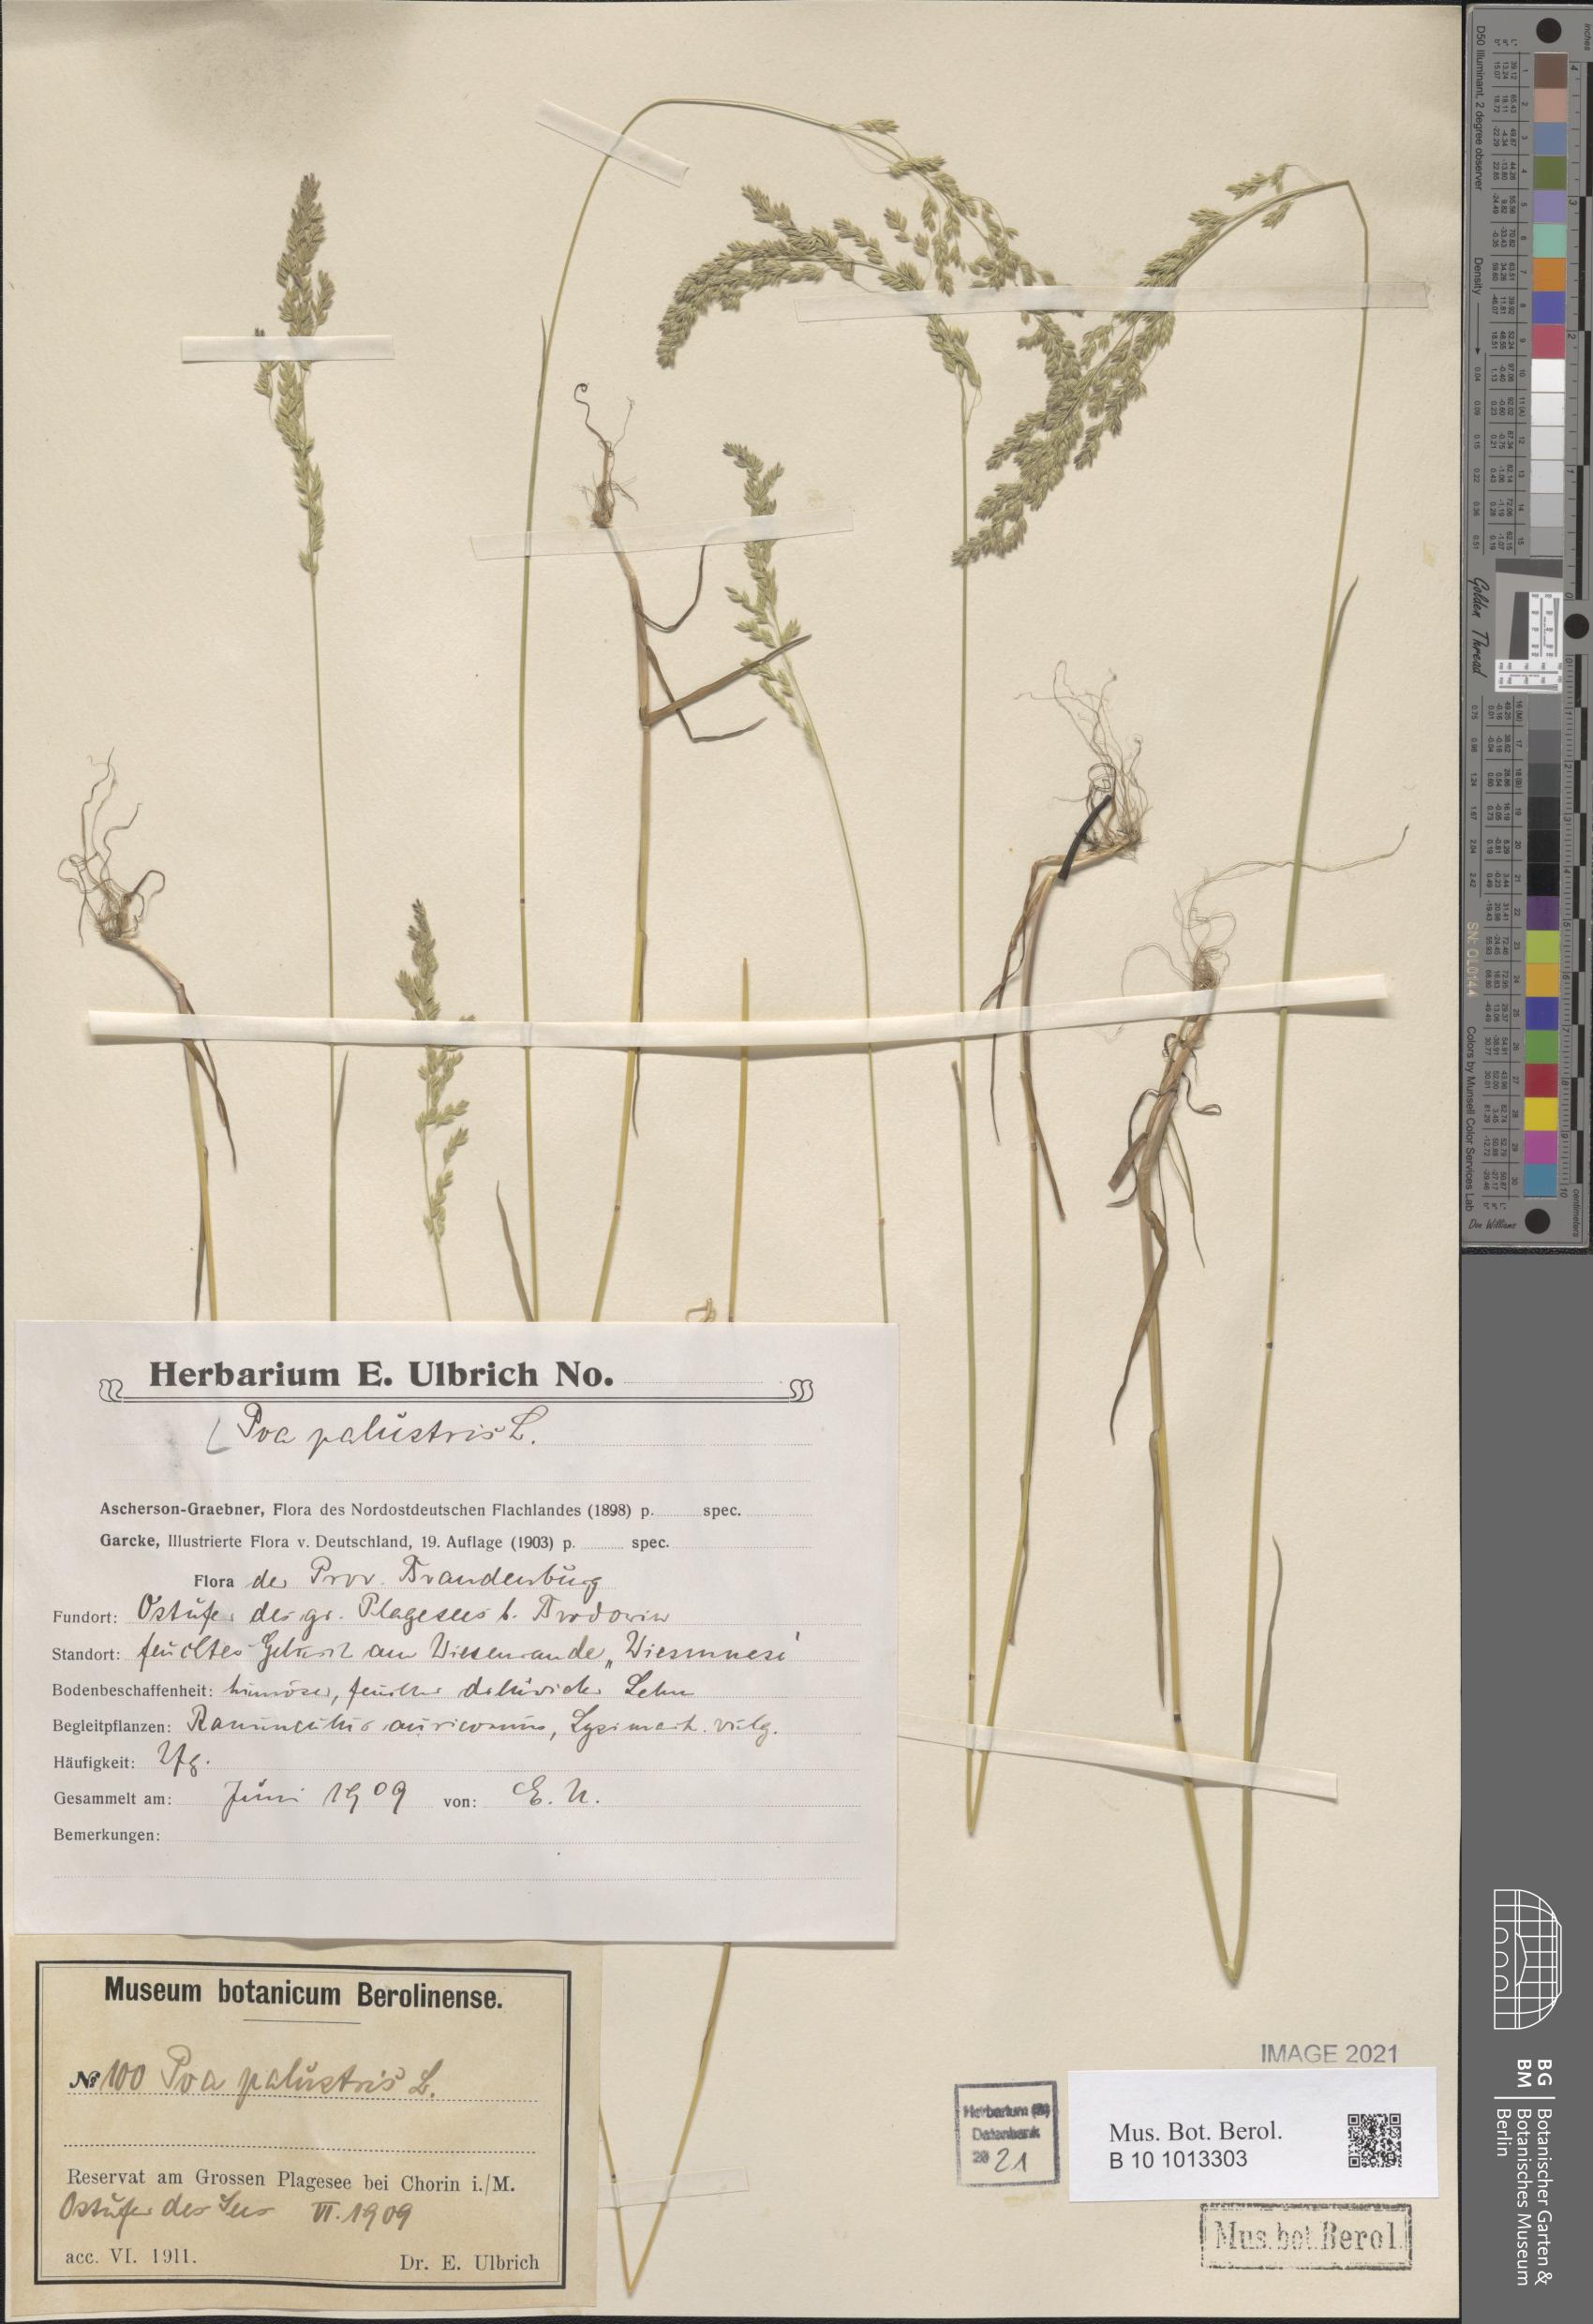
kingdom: Plantae
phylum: Tracheophyta
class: Liliopsida
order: Poales
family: Poaceae
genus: Poa
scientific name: Poa palustris
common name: Swamp meadow-grass
